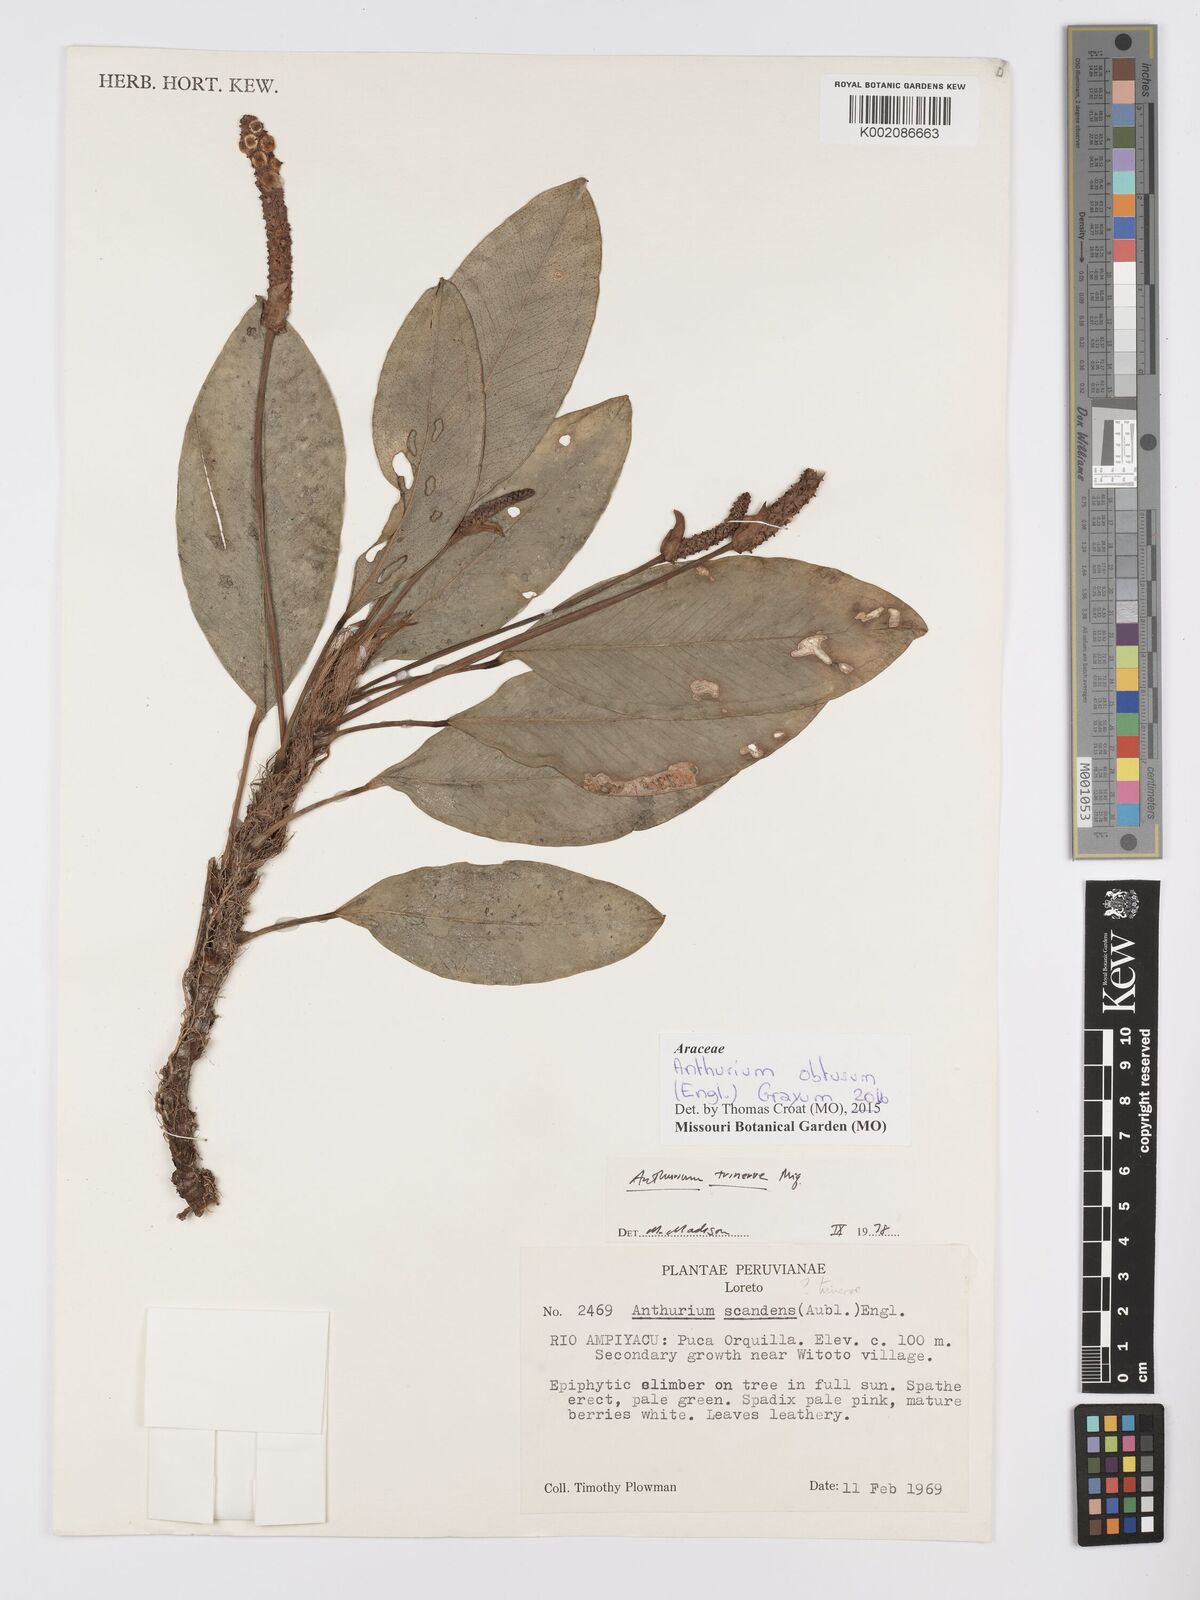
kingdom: Plantae
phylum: Tracheophyta
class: Liliopsida
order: Alismatales
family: Araceae
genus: Anthurium
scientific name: Anthurium obtusum
